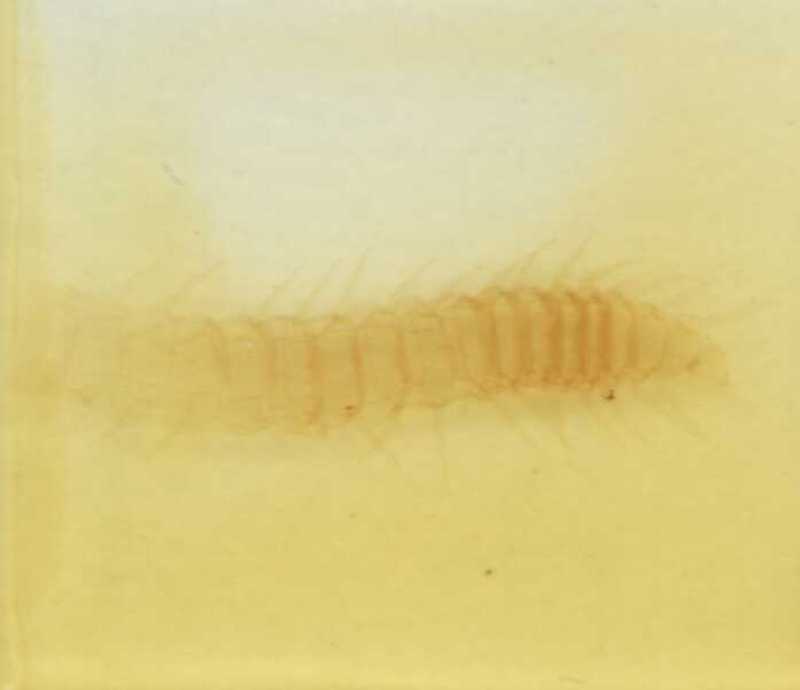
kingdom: Animalia
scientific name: Animalia
